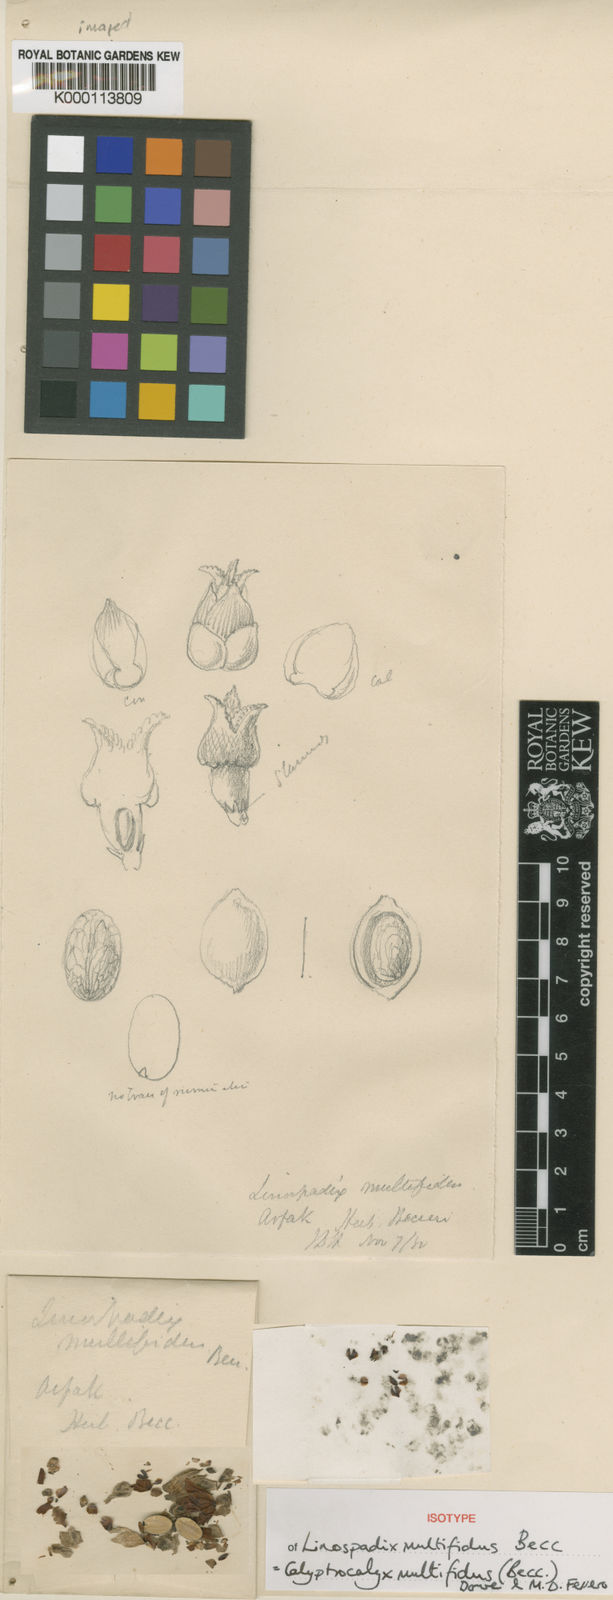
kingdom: Plantae
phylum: Tracheophyta
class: Liliopsida
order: Arecales
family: Arecaceae
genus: Calyptrocalyx
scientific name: Calyptrocalyx multifidus
